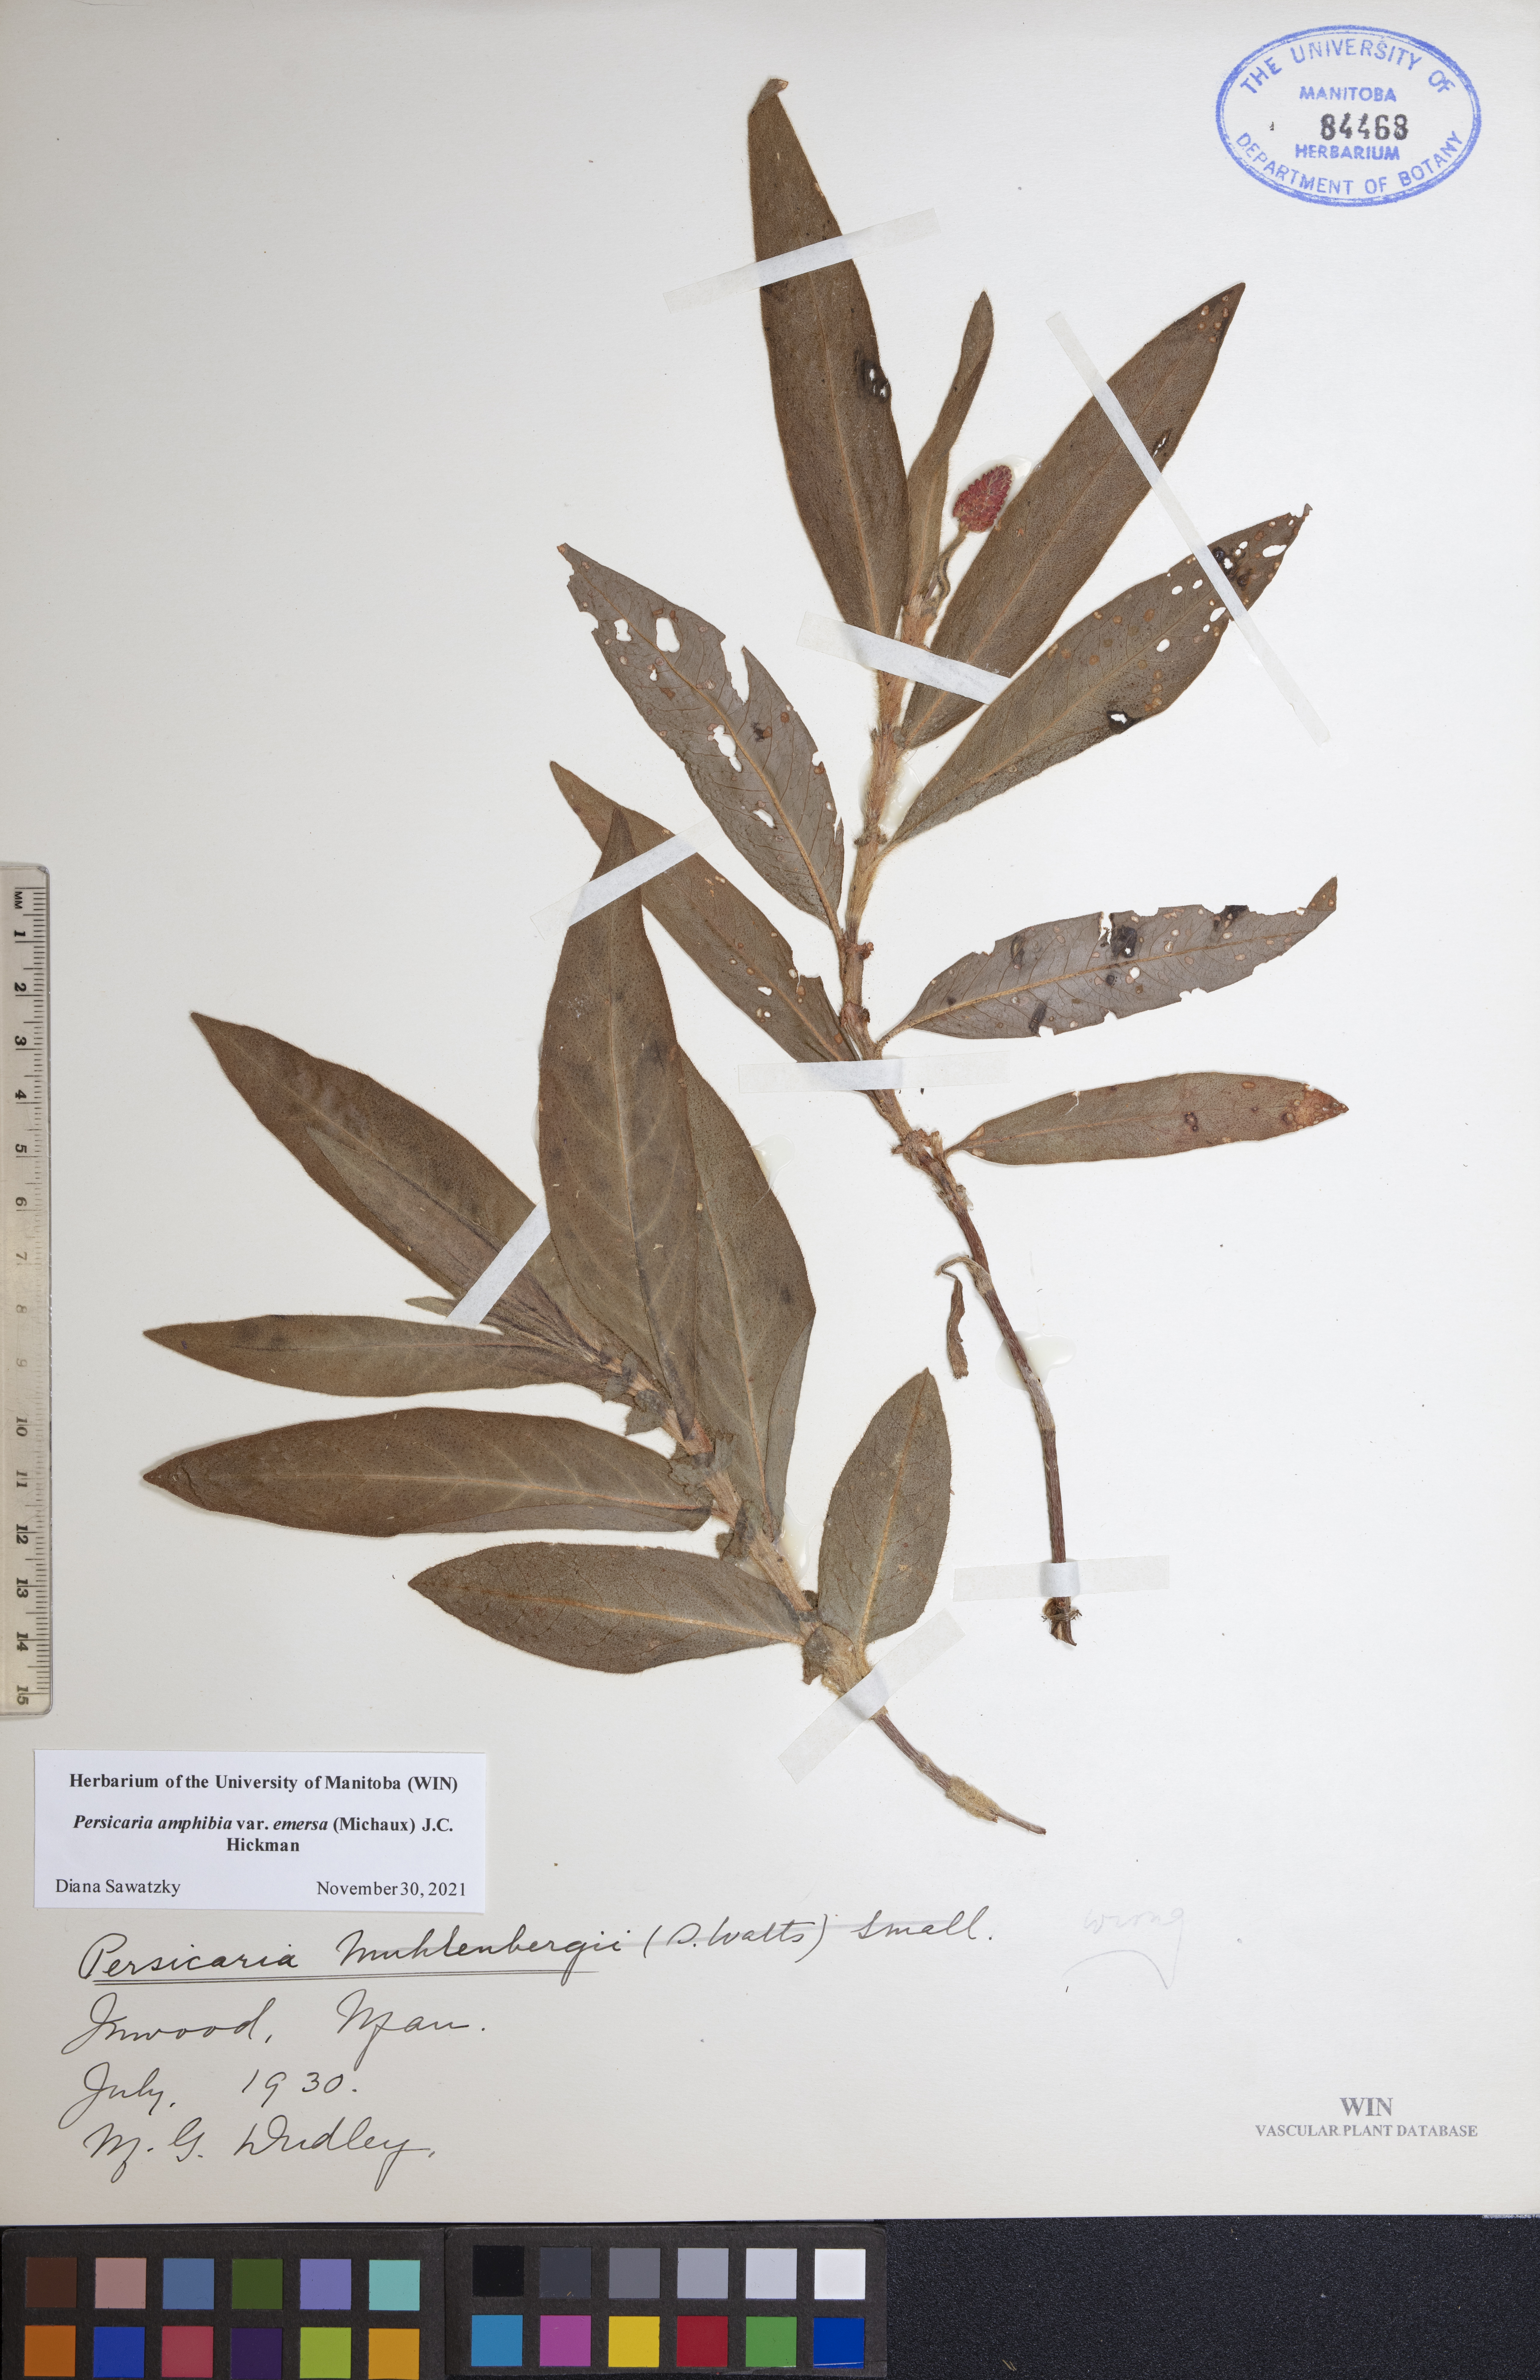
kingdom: Plantae
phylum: Tracheophyta
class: Magnoliopsida
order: Caryophyllales
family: Polygonaceae
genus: Persicaria
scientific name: Persicaria amphibia
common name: Amphibious bistort
